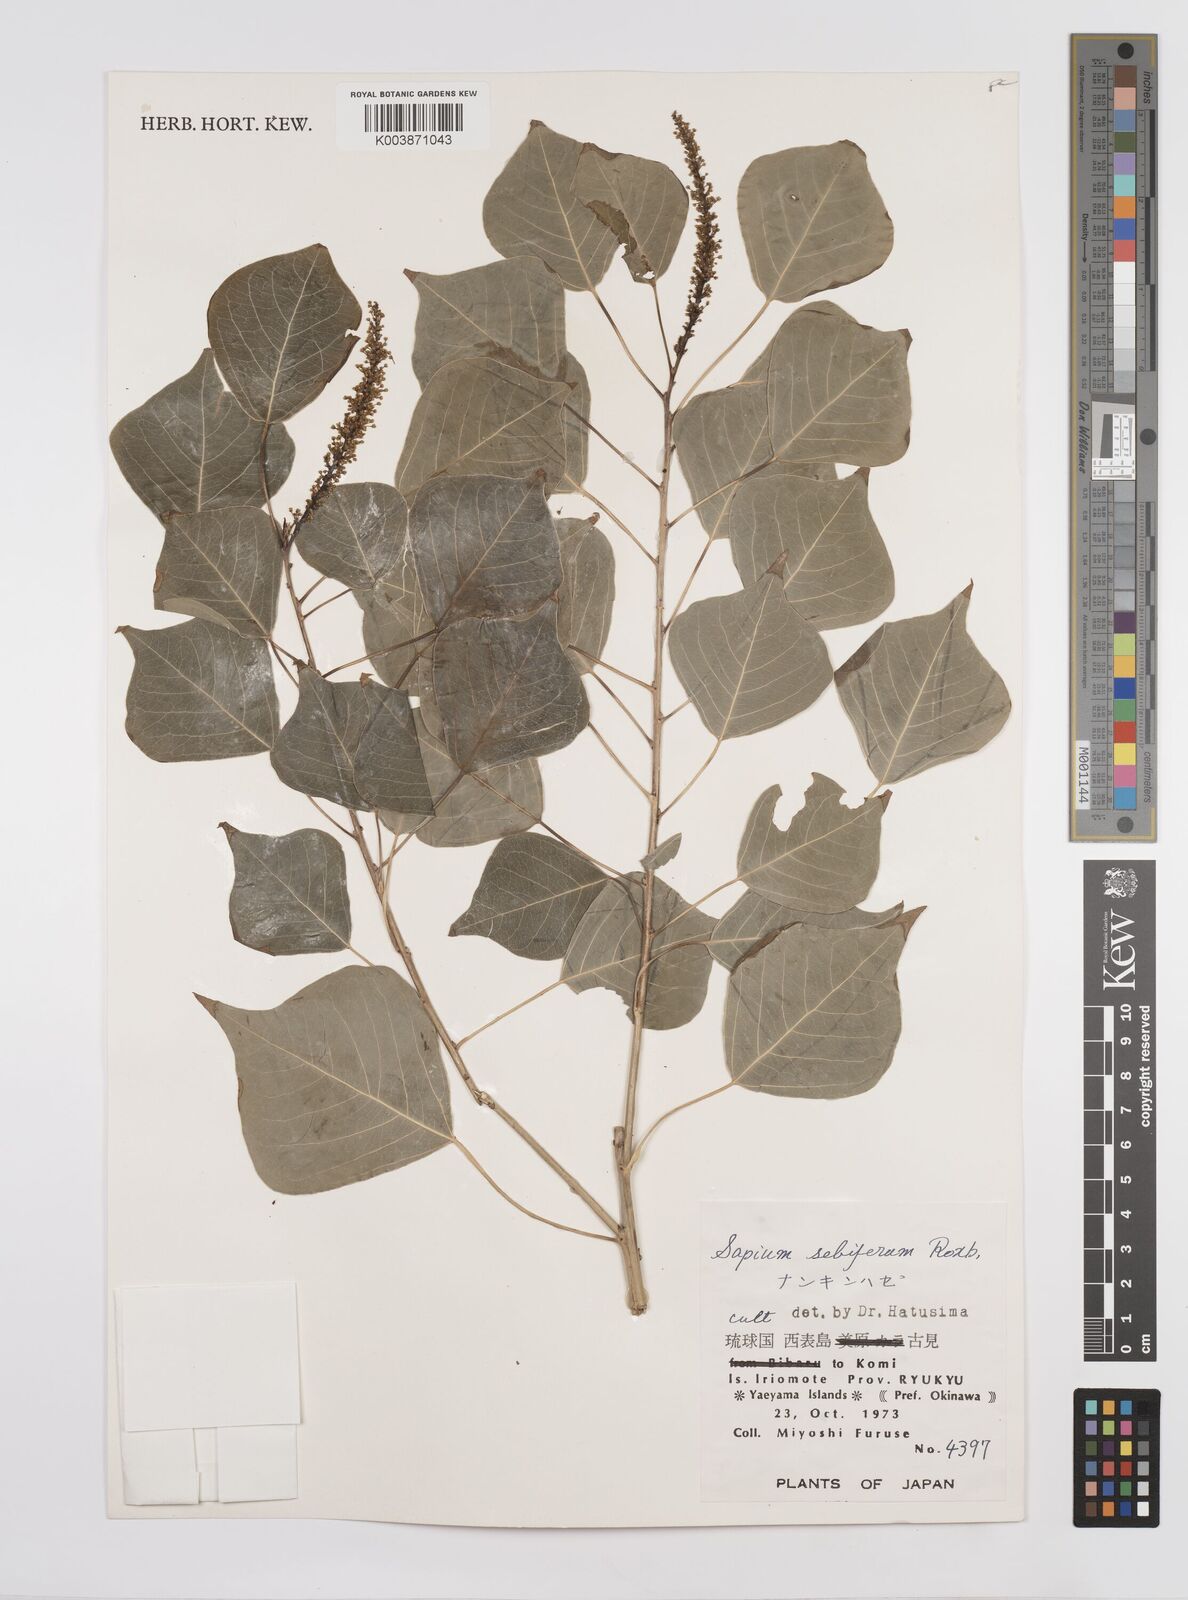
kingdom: Plantae
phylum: Tracheophyta
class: Magnoliopsida
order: Malpighiales
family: Euphorbiaceae
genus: Triadica
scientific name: Triadica sebifera
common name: Chinese tallow
